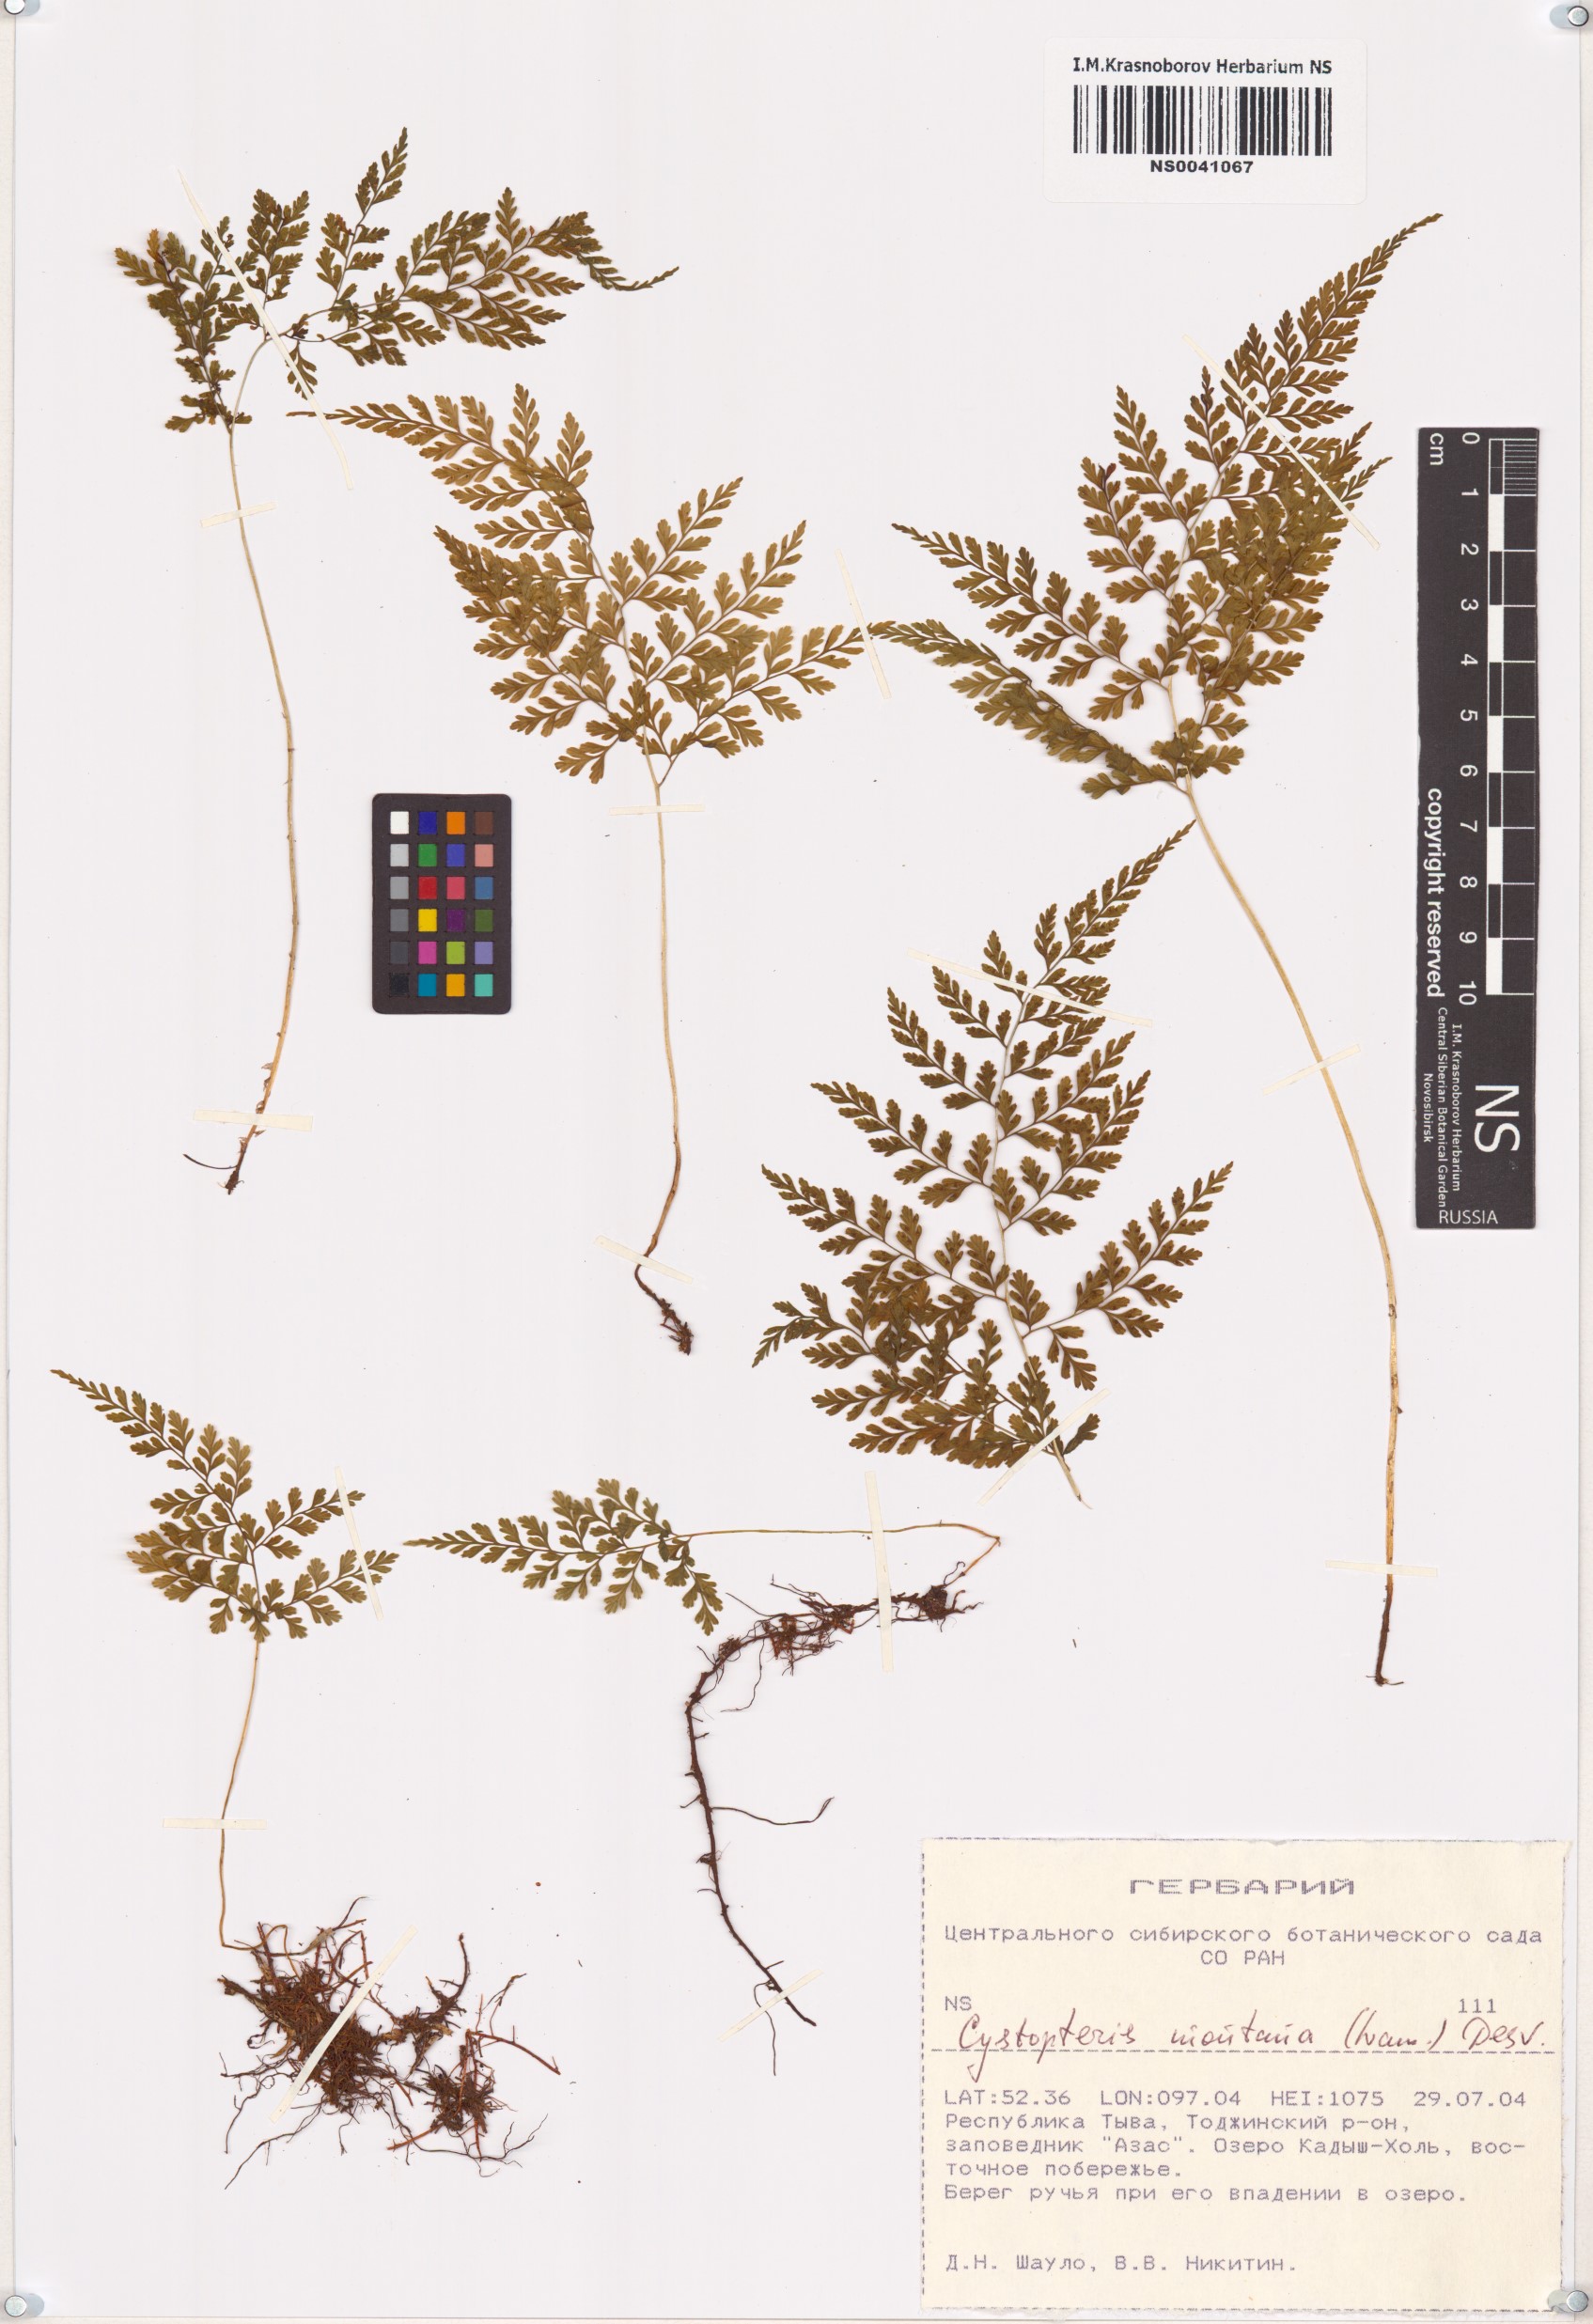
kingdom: Plantae
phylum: Tracheophyta
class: Polypodiopsida
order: Polypodiales
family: Cystopteridaceae
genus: Cystopteris
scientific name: Cystopteris montana
